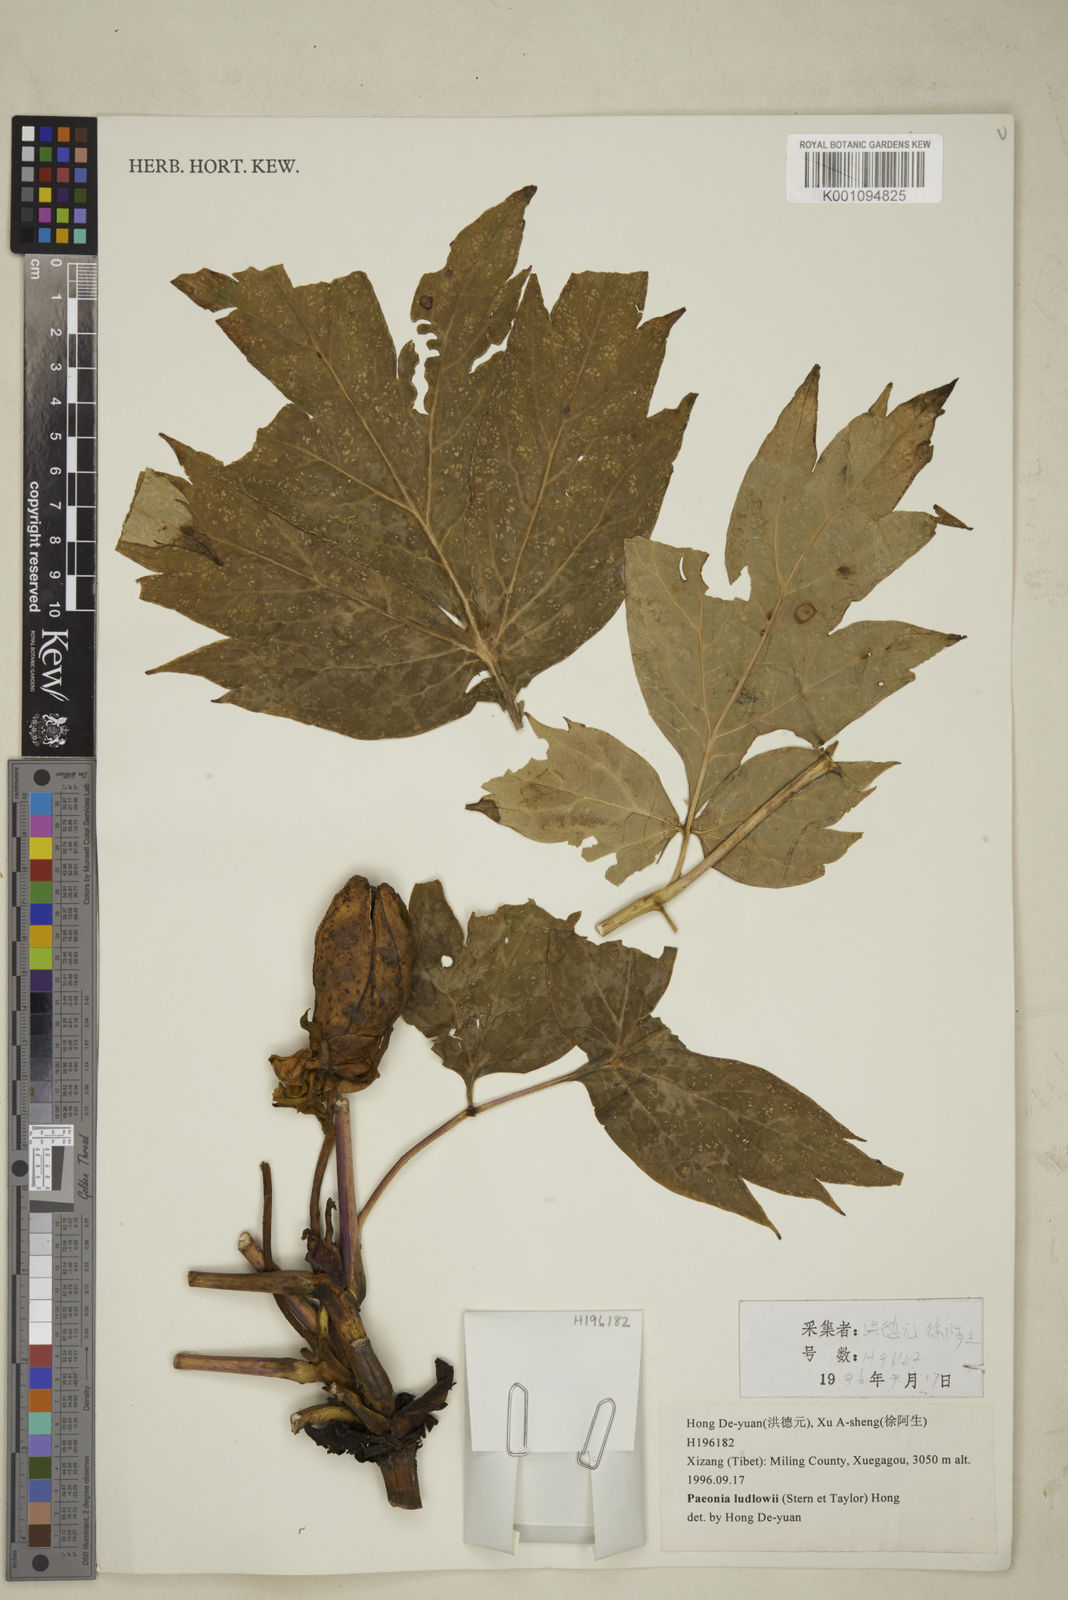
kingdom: Plantae
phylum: Tracheophyta
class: Magnoliopsida
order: Saxifragales
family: Paeoniaceae
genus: Paeonia
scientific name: Paeonia delavayi
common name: Dian mu dan
